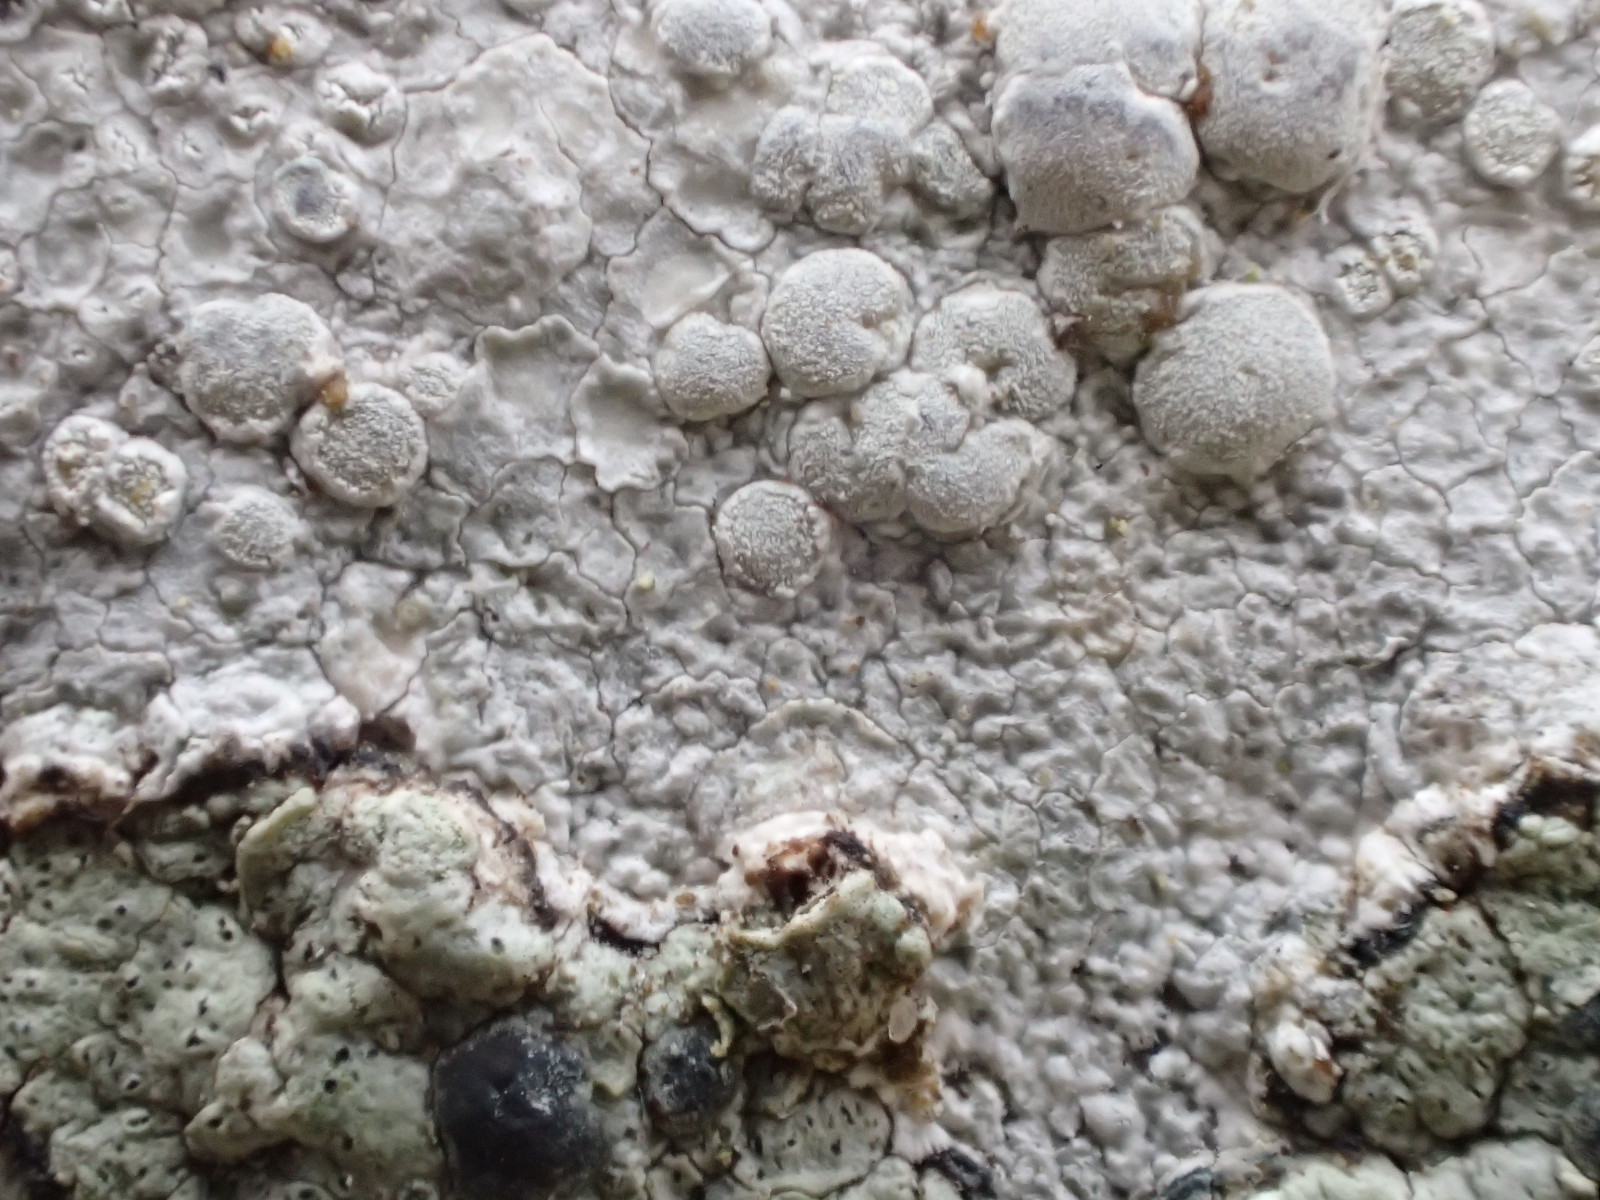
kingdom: Fungi
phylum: Ascomycota
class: Lecanoromycetes
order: Lecanorales
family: Lecanoraceae
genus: Glaucomaria
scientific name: Glaucomaria rupicola
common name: stengærde-kantskivelav
